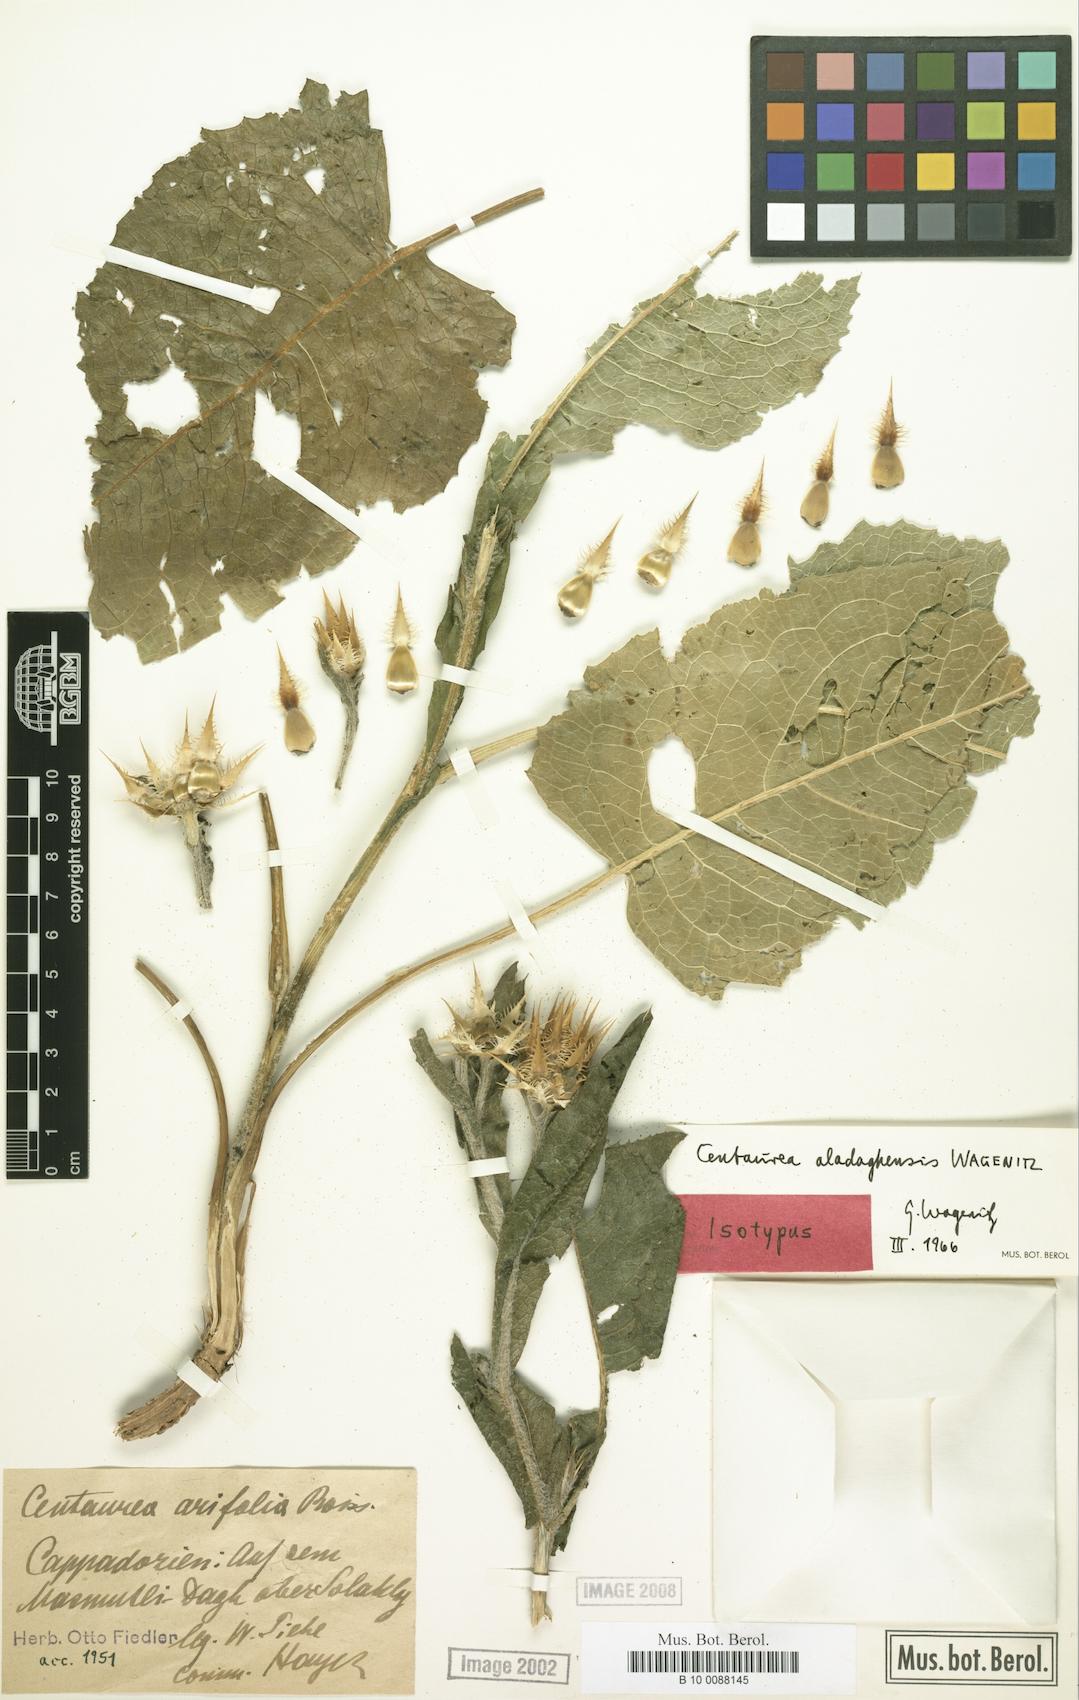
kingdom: Plantae
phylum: Tracheophyta
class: Magnoliopsida
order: Asterales
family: Asteraceae
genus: Centaurea
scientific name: Centaurea aladaghensis
